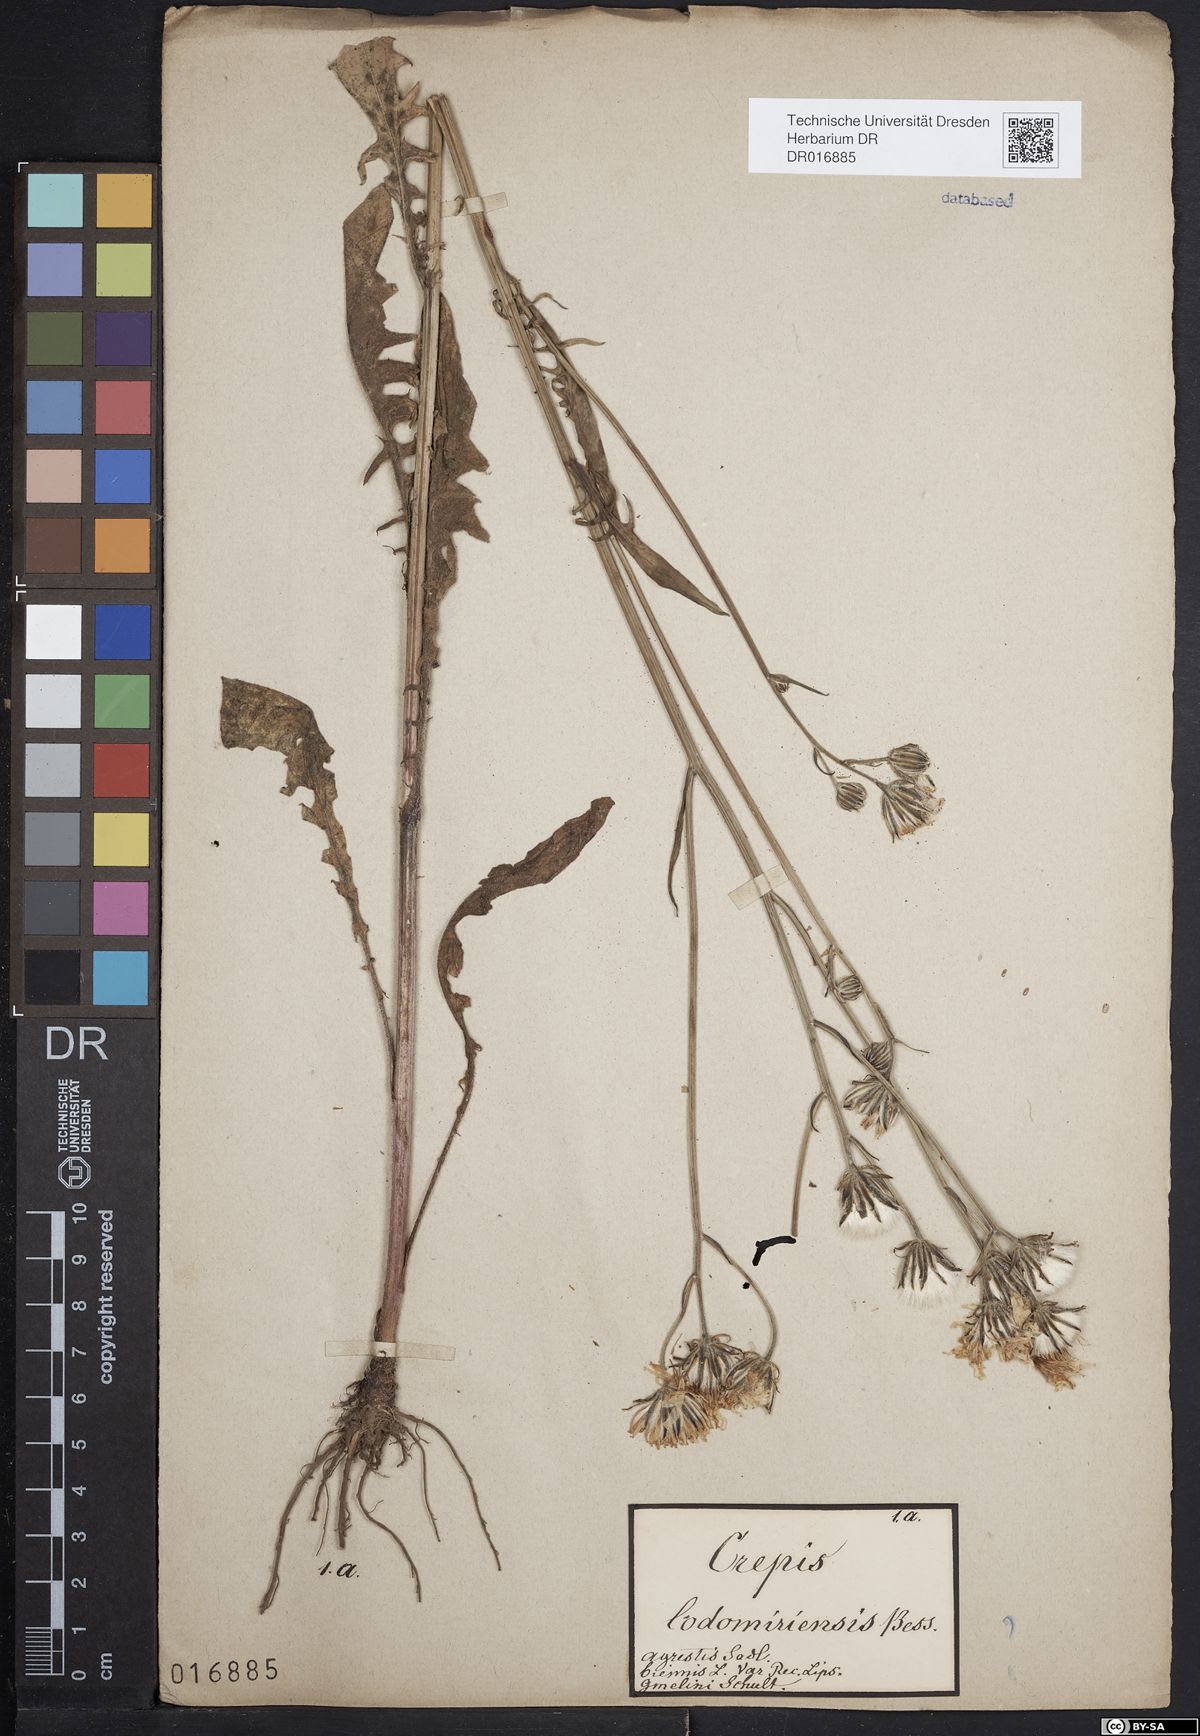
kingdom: Plantae
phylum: Tracheophyta
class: Magnoliopsida
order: Asterales
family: Asteraceae
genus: Crepis
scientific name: Crepis biennis
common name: Rough hawk's-beard
